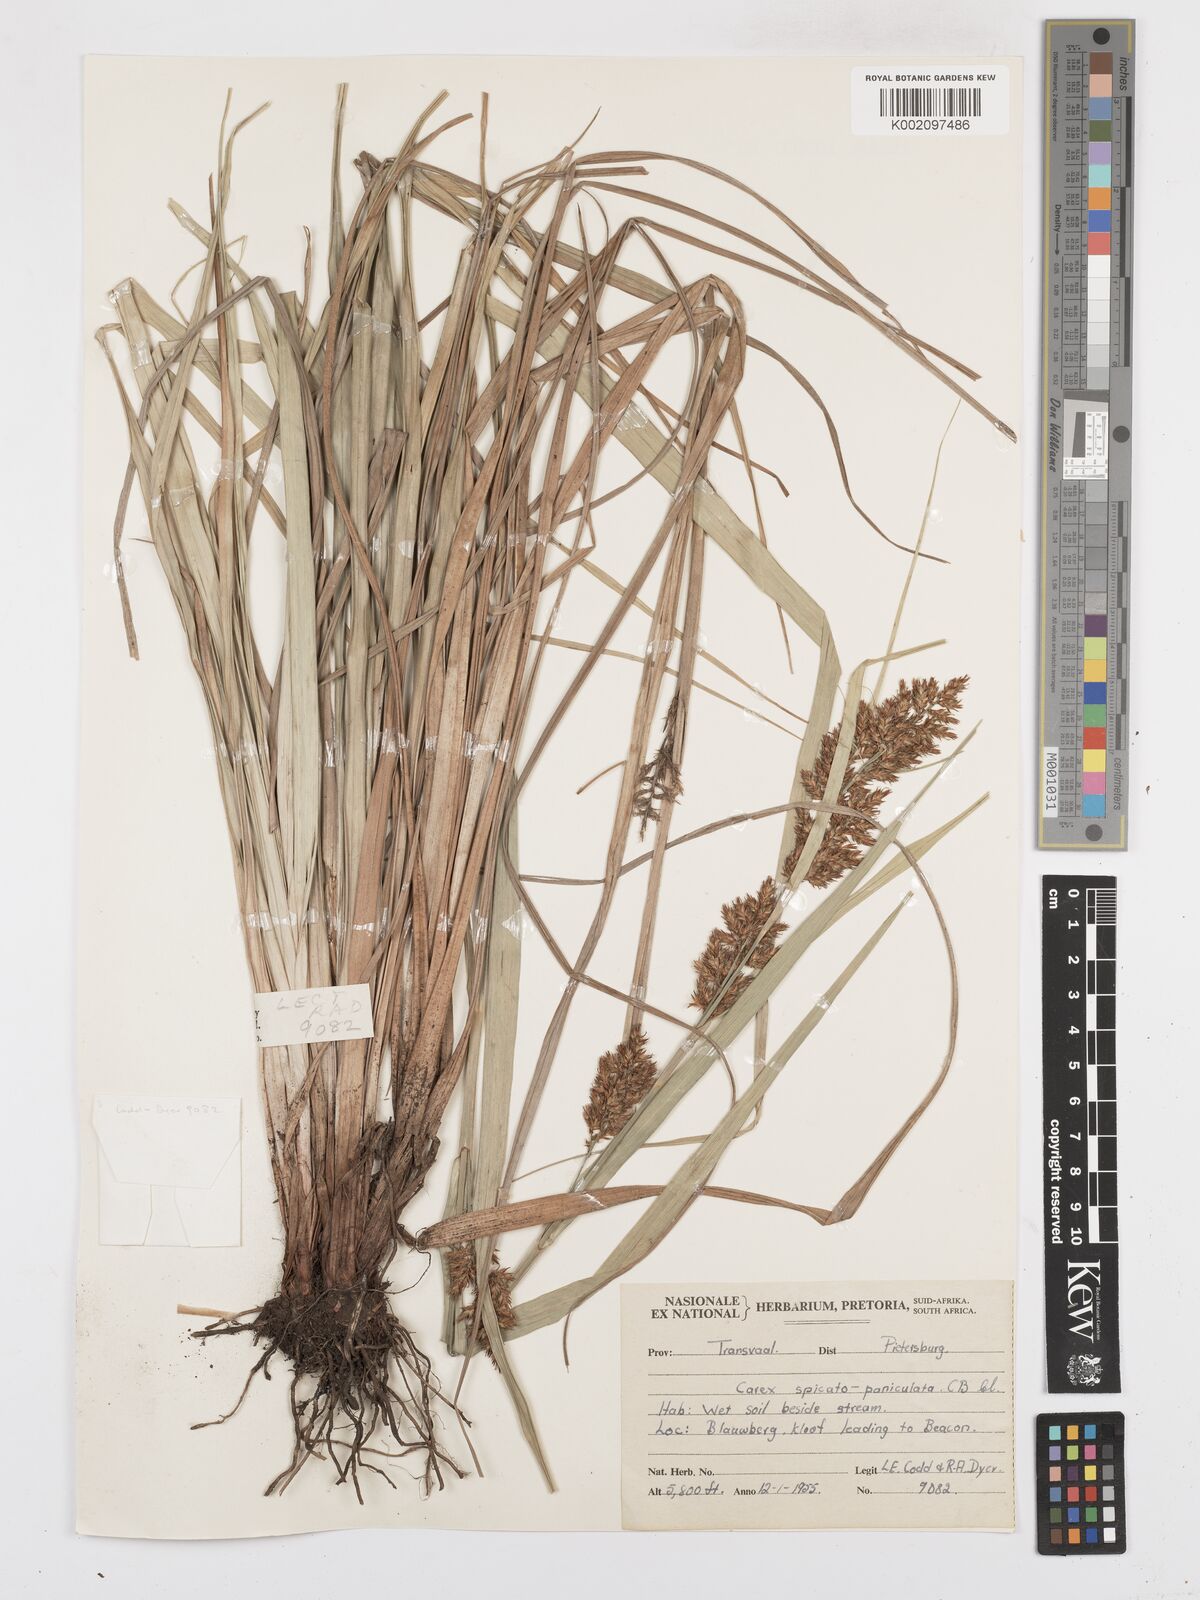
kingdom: Plantae
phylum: Tracheophyta
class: Liliopsida
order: Poales
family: Cyperaceae
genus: Carex
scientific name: Carex spicatopaniculata
